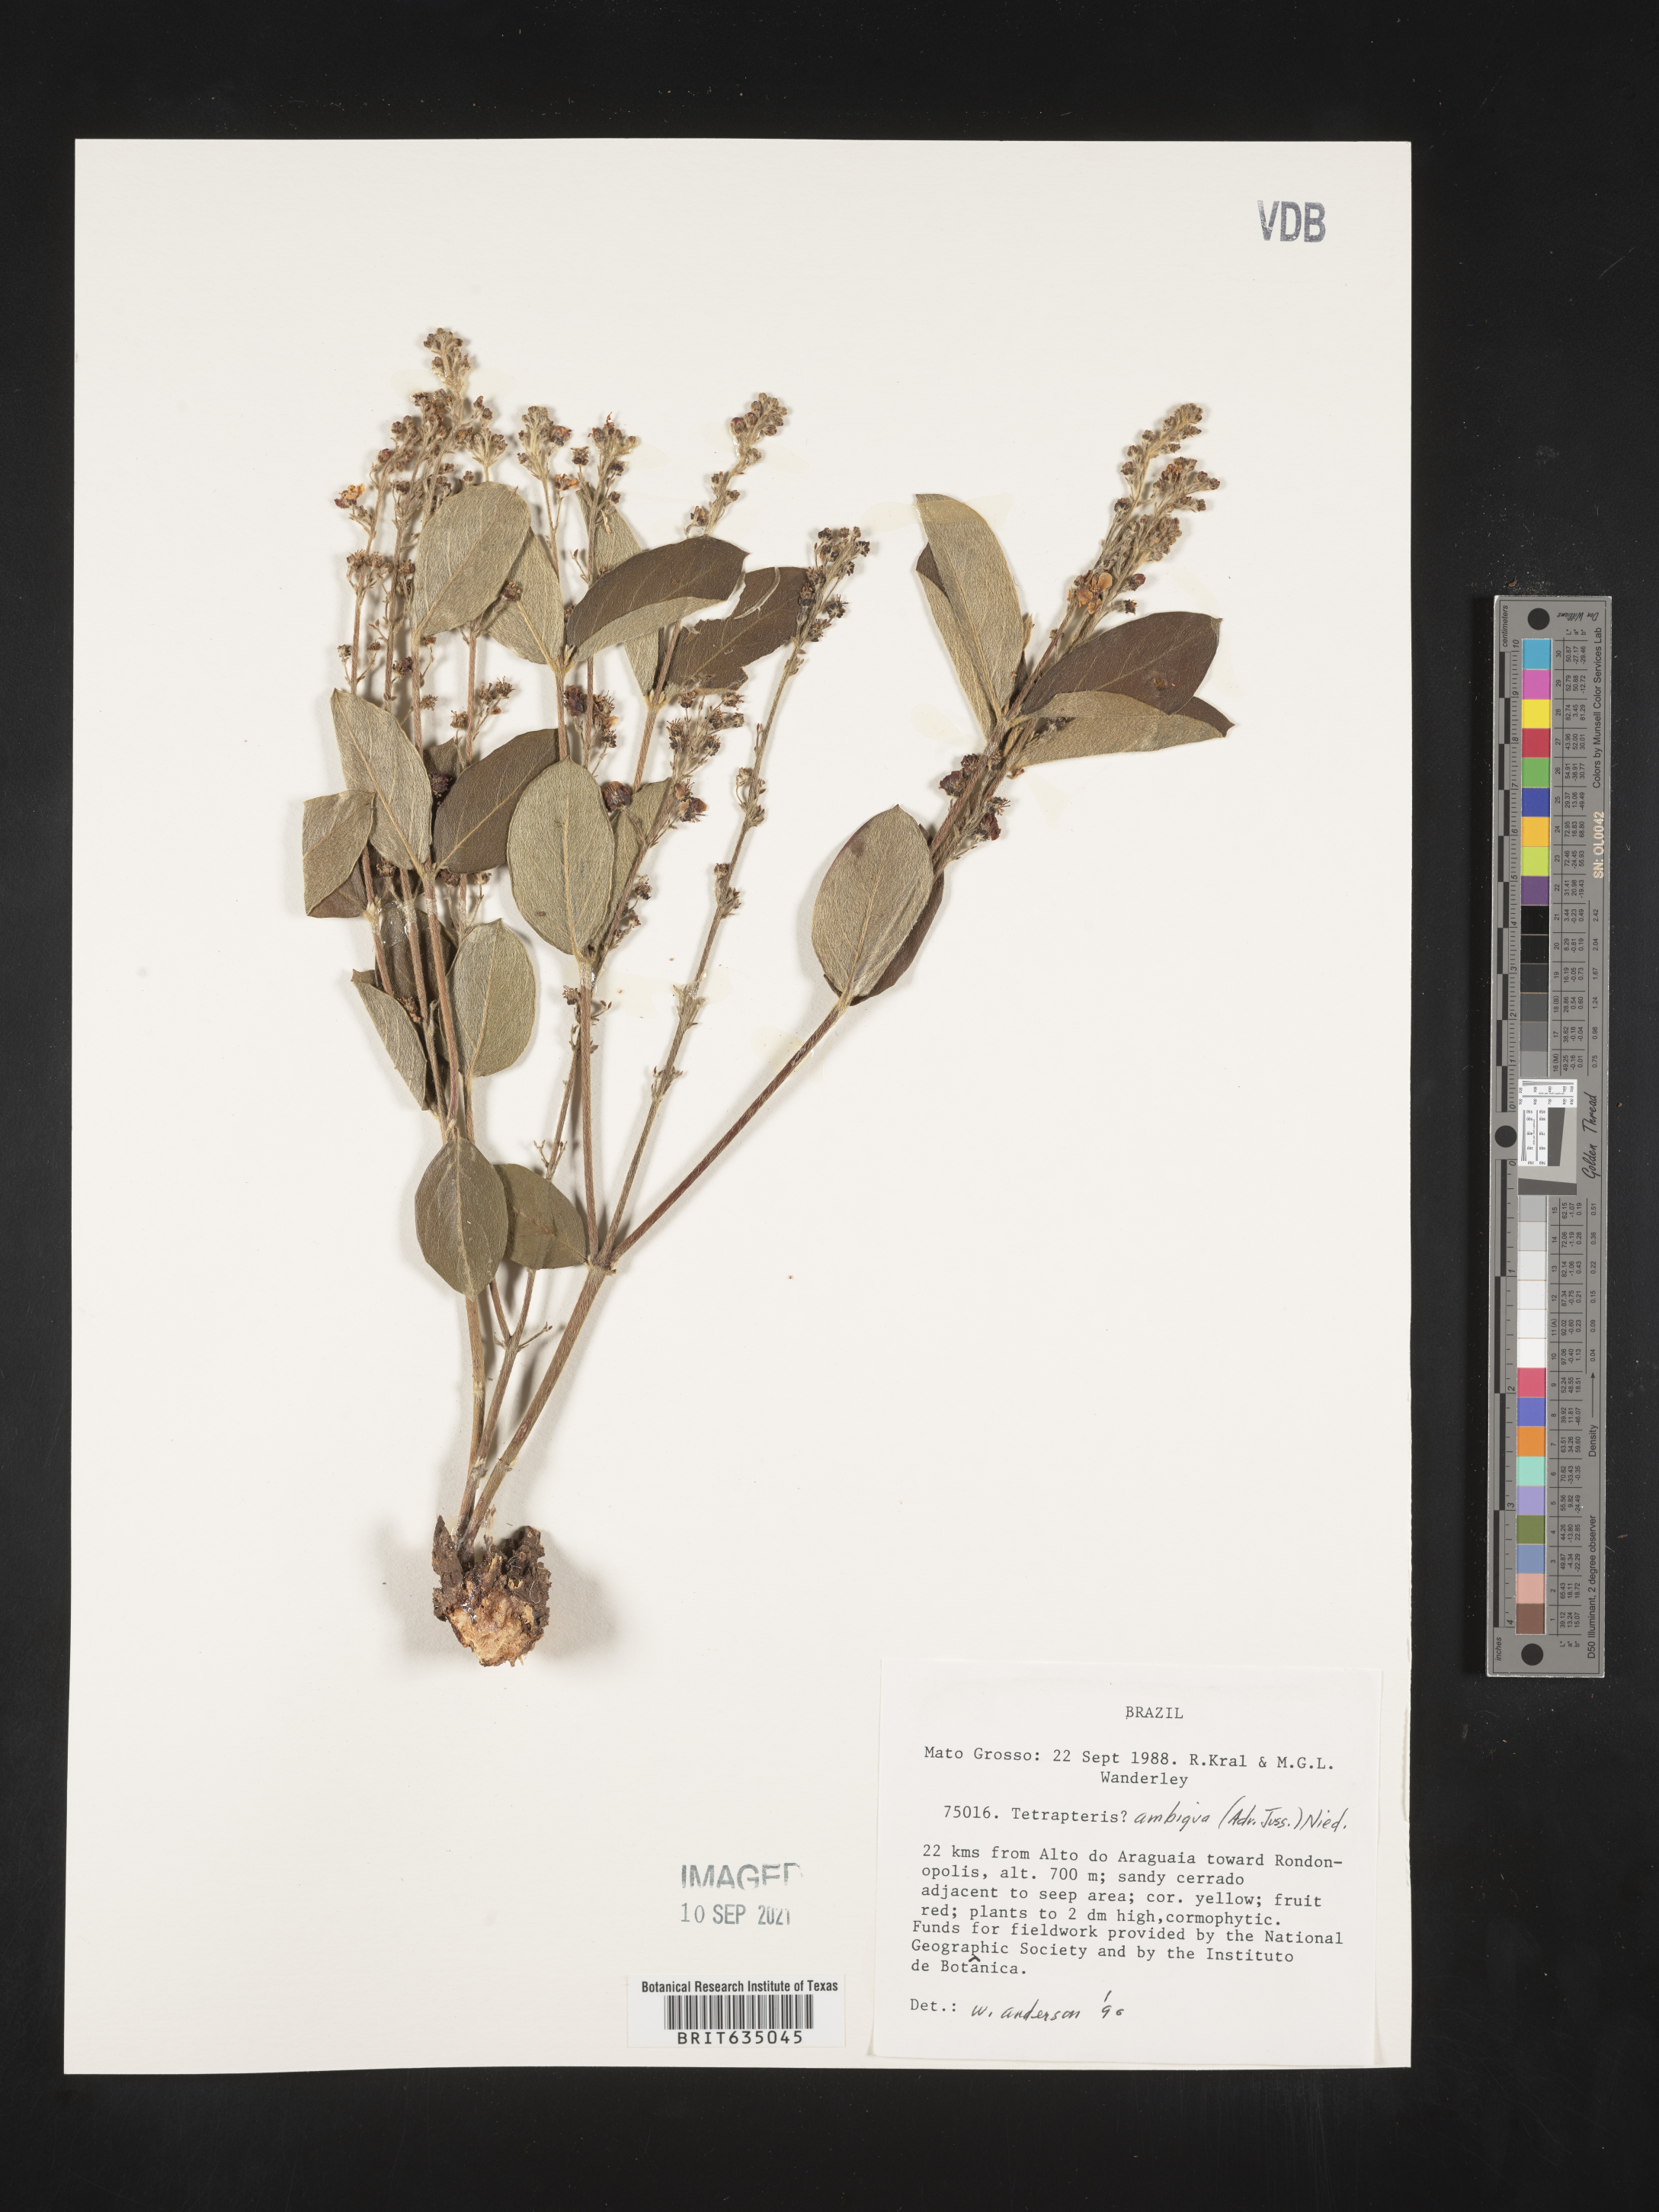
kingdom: Plantae
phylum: Tracheophyta
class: Magnoliopsida
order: Ericales
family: Styracaceae
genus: Tetrapteris
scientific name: Tetrapteris
